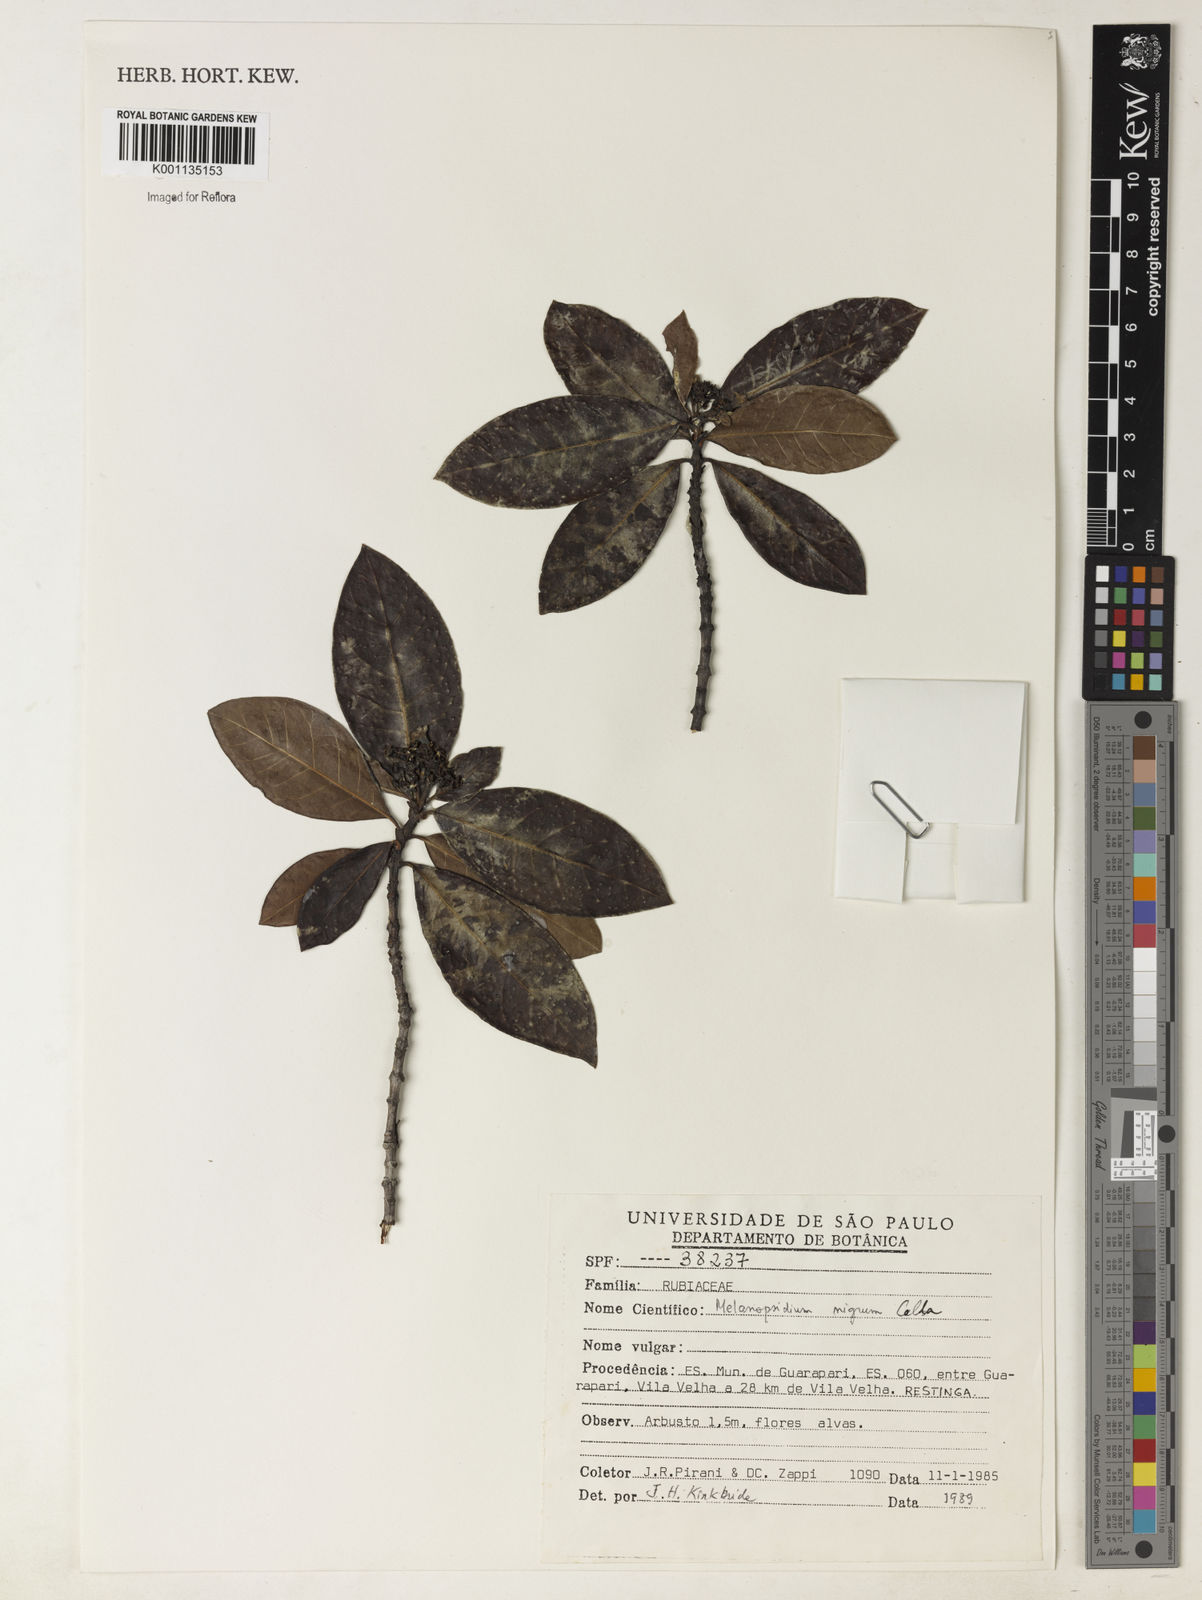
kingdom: Plantae
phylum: Tracheophyta
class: Magnoliopsida
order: Gentianales
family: Rubiaceae
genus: Melanopsidium
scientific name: Melanopsidium nigrum
